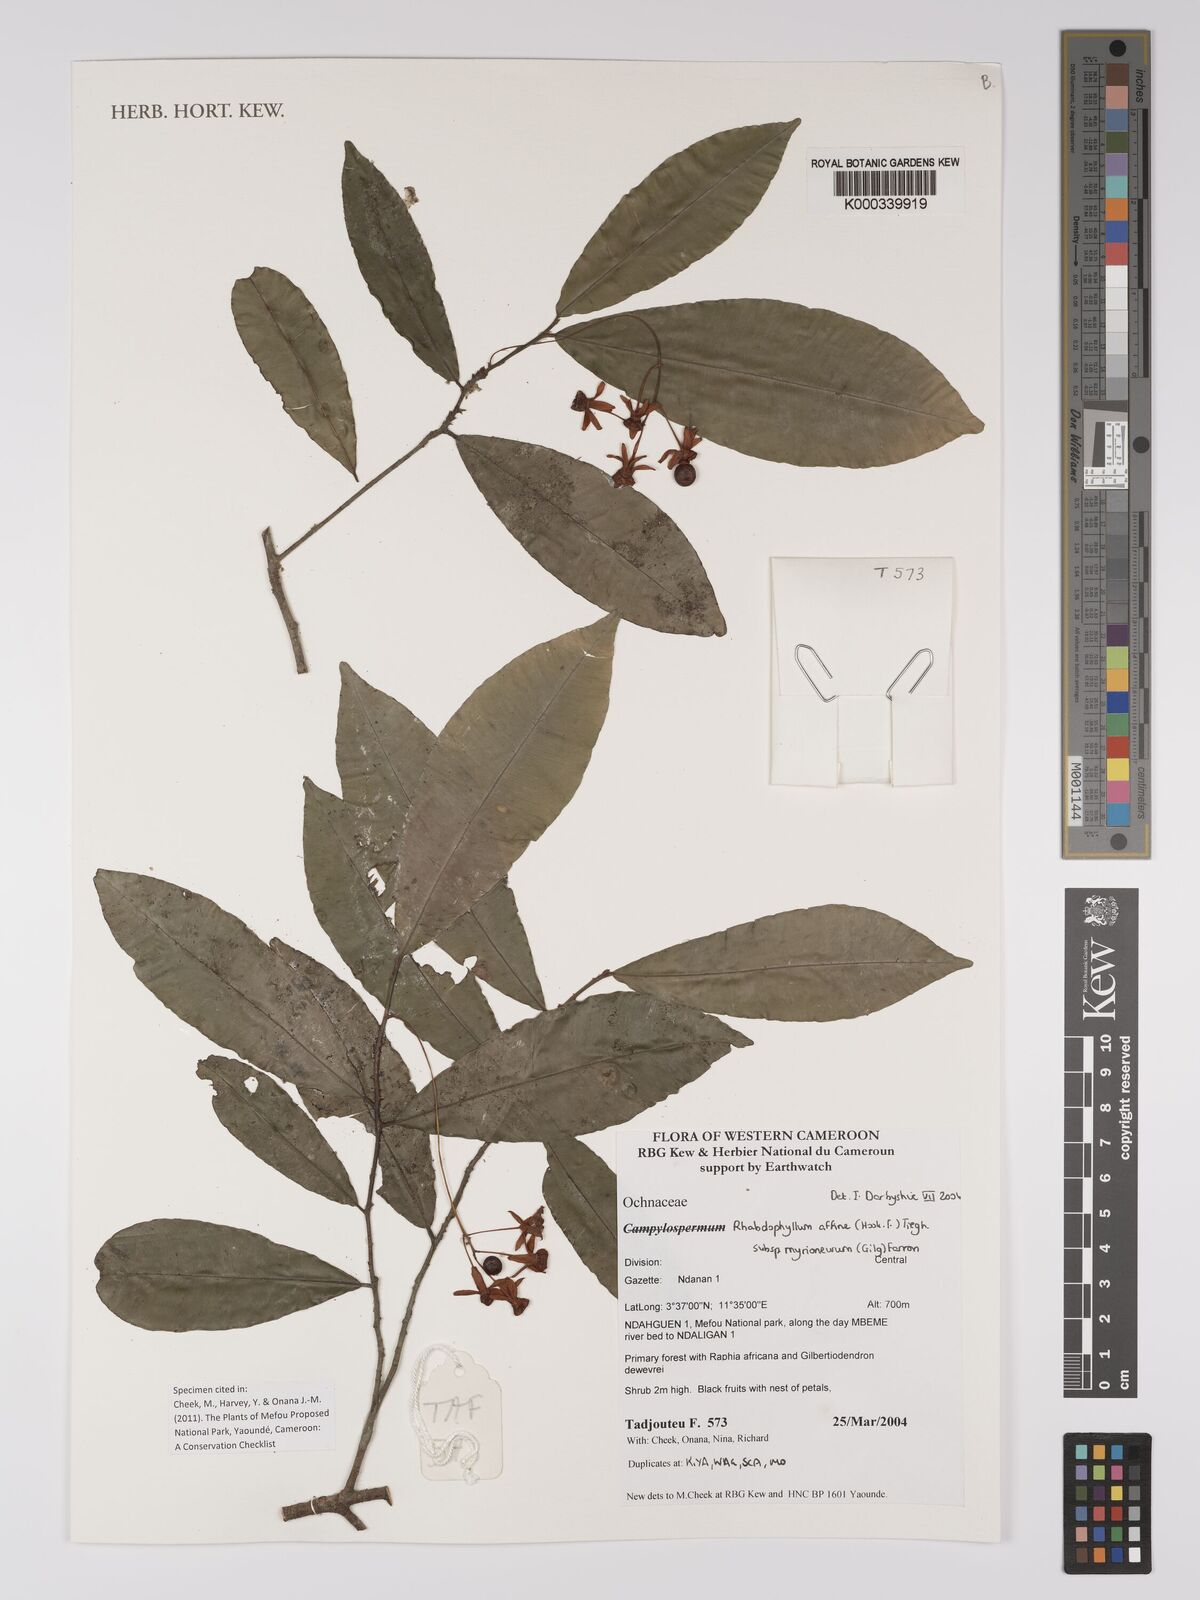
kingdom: Plantae
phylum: Tracheophyta
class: Magnoliopsida
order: Malpighiales
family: Ochnaceae
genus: Rhabdophyllum
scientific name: Rhabdophyllum affine
